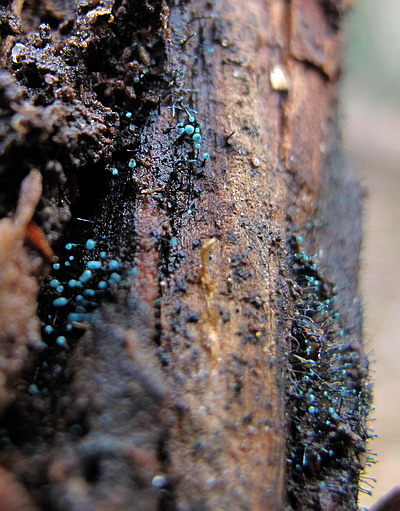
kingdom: Fungi
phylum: Ascomycota
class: Leotiomycetes
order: Leotiales
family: Tympanidaceae
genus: Dendrostilbella
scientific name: Dendrostilbella smaragdina
